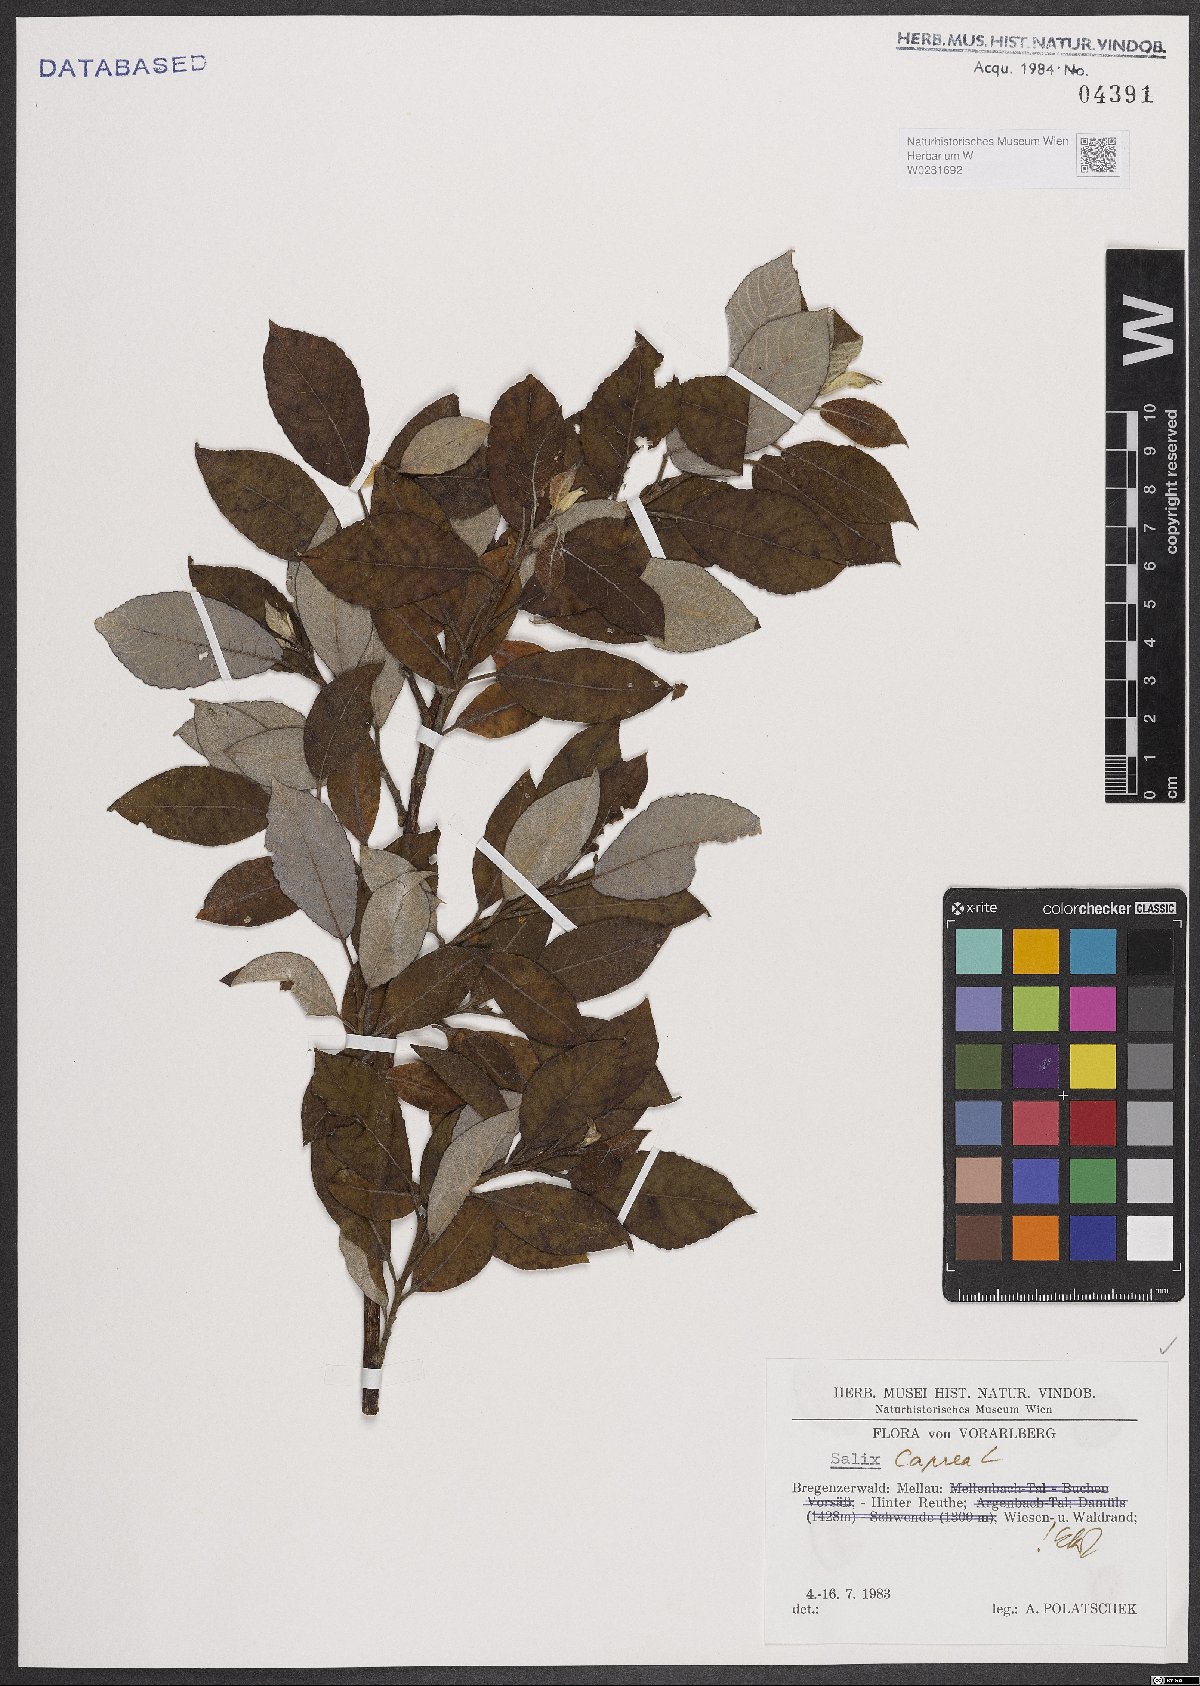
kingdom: Plantae
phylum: Tracheophyta
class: Magnoliopsida
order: Malpighiales
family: Salicaceae
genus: Salix
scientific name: Salix caprea
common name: Goat willow
